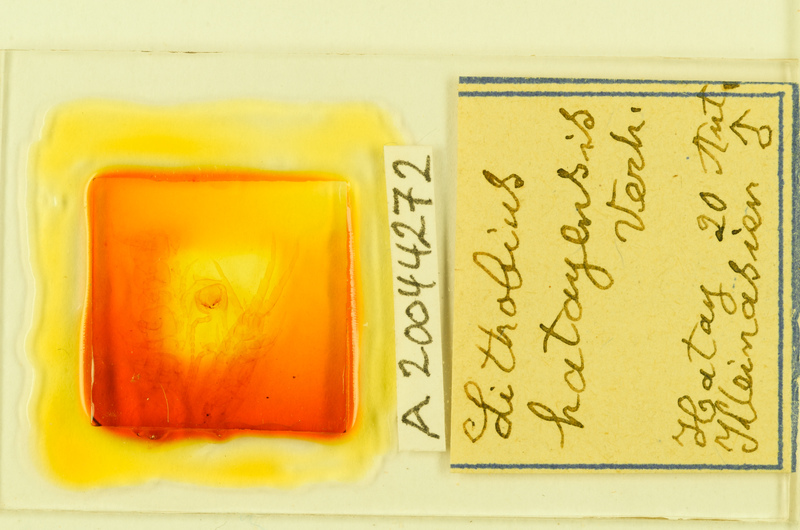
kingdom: Animalia
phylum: Arthropoda
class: Chilopoda
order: Lithobiomorpha
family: Lithobiidae
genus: Hessebius
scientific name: Hessebius barbipes
